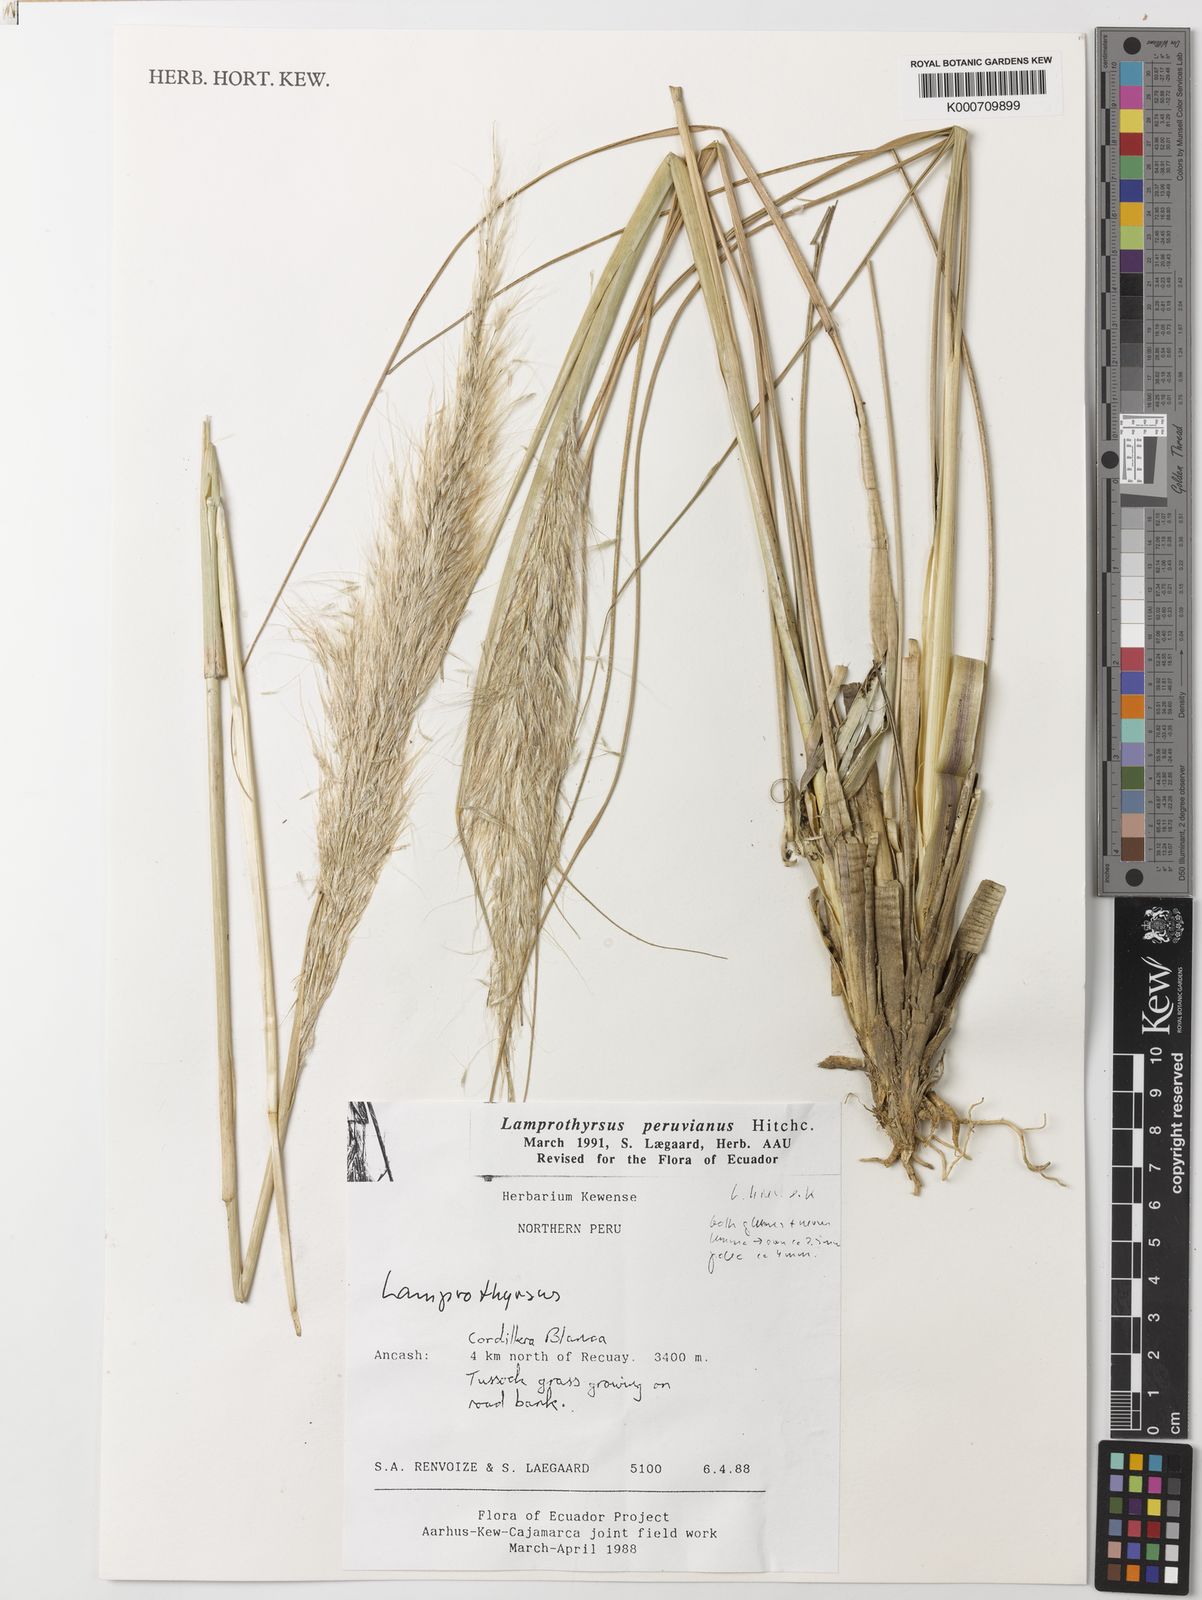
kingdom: Plantae
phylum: Tracheophyta
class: Liliopsida
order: Poales
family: Poaceae
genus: Cortaderia
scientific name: Cortaderia hieronymi
